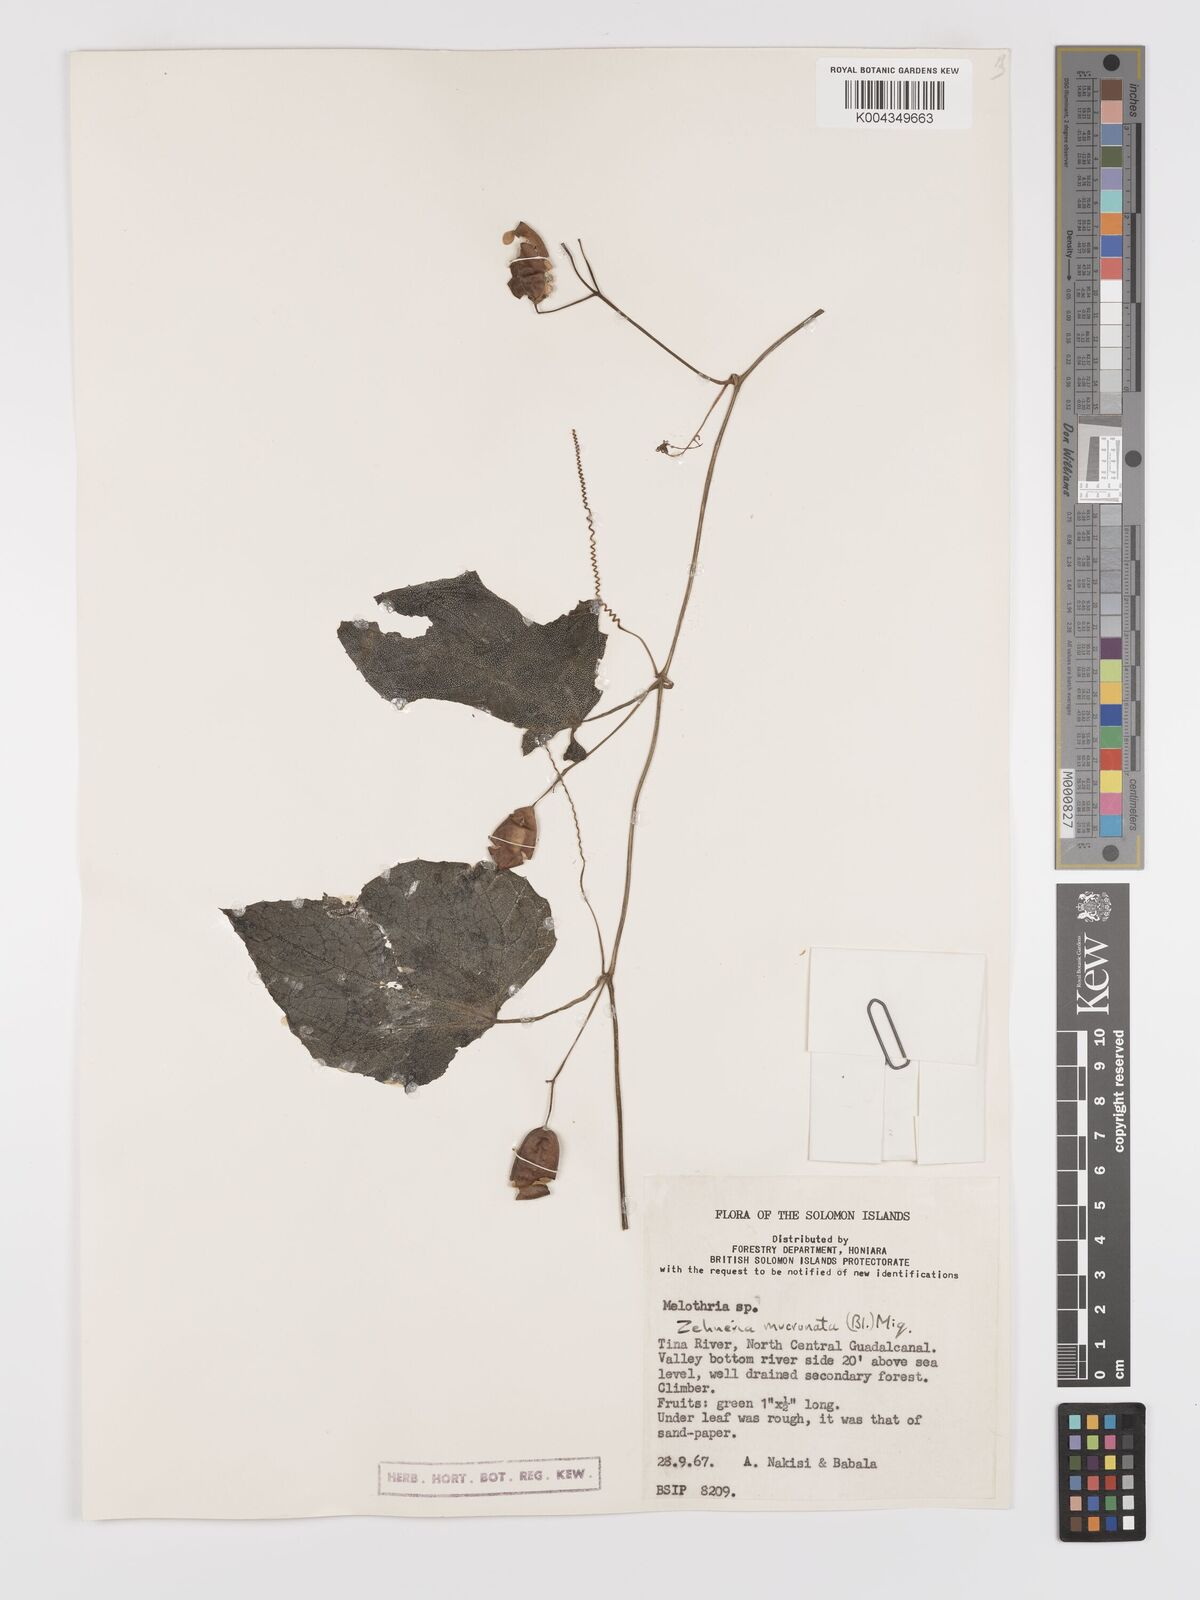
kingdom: Plantae
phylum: Tracheophyta
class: Magnoliopsida
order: Cucurbitales
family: Cucurbitaceae
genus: Zehneria
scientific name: Zehneria mucronata
